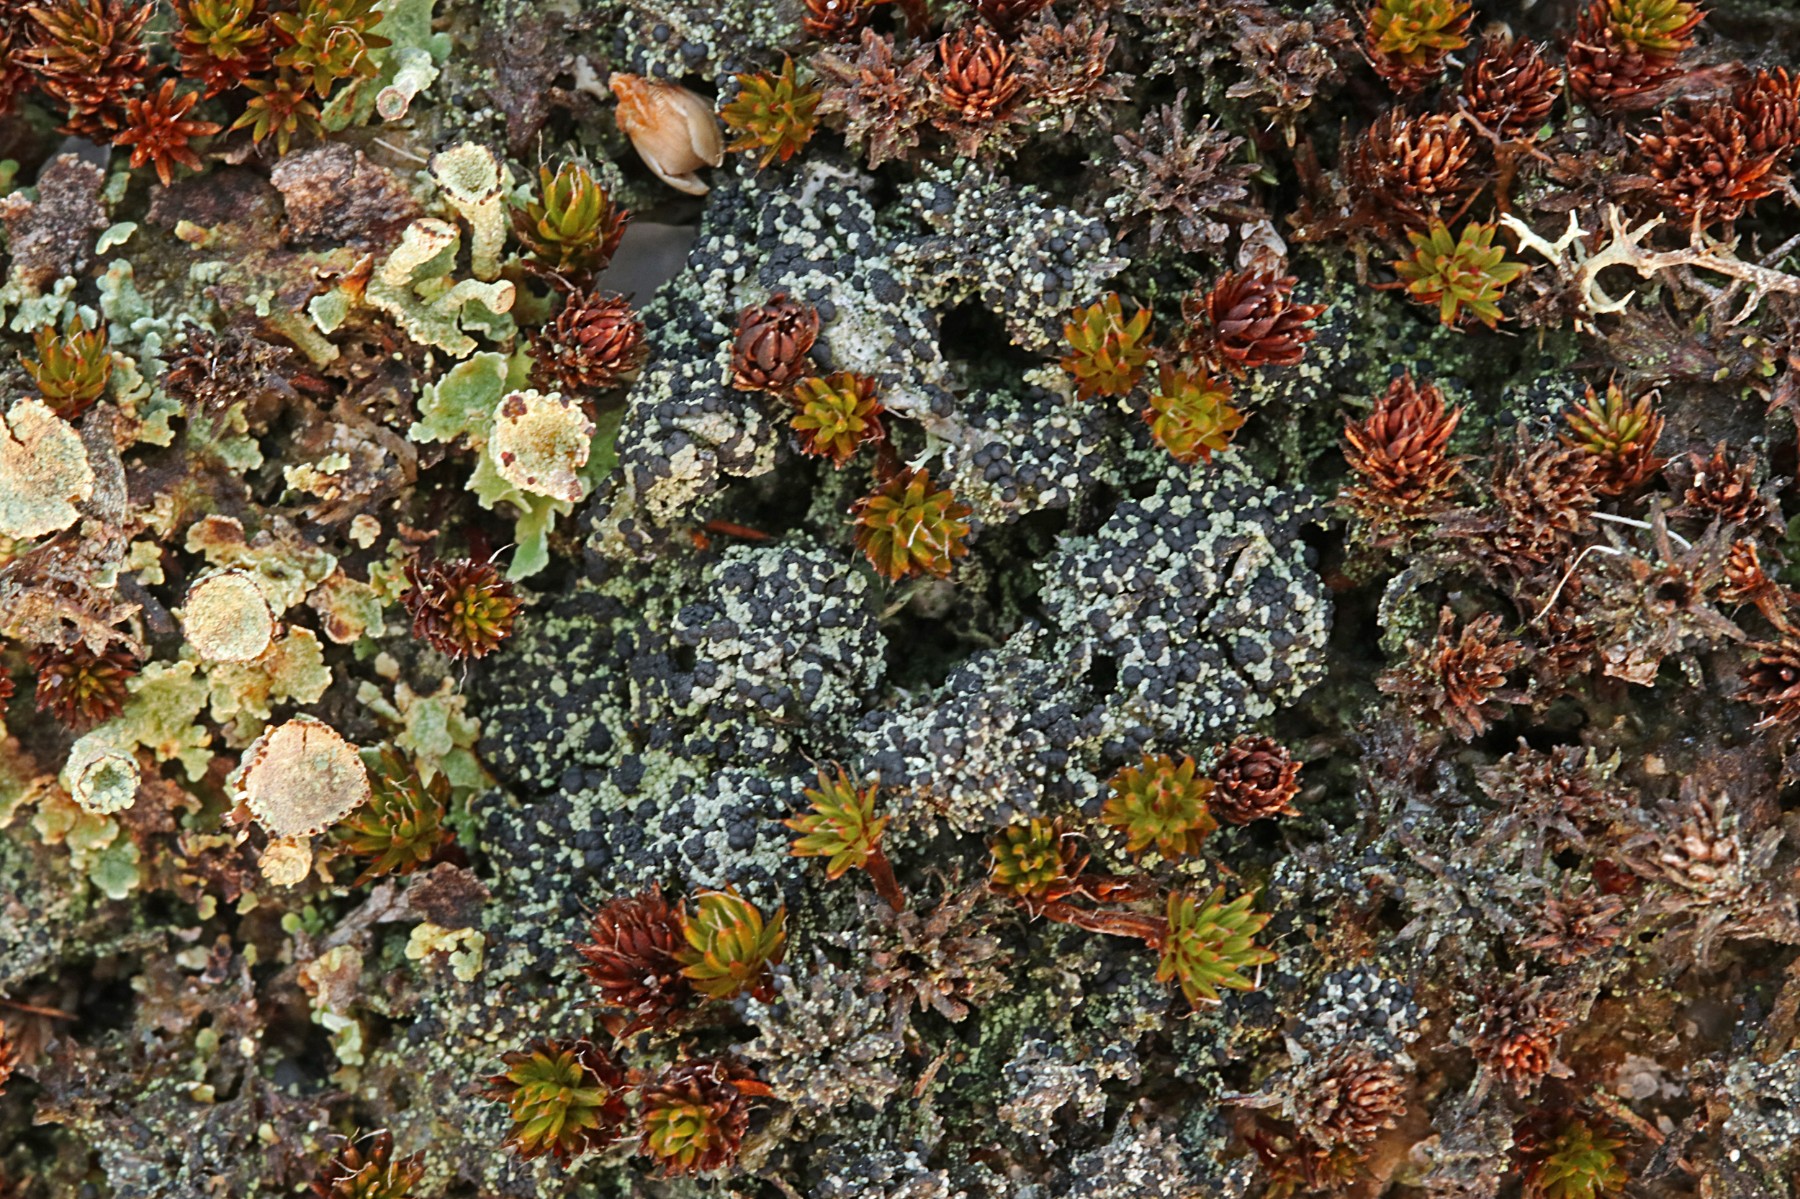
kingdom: Fungi
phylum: Ascomycota
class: Lecanoromycetes
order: Lecanorales
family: Byssolomataceae
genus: Micarea
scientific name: Micarea lignaria
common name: tørve-knaplav
